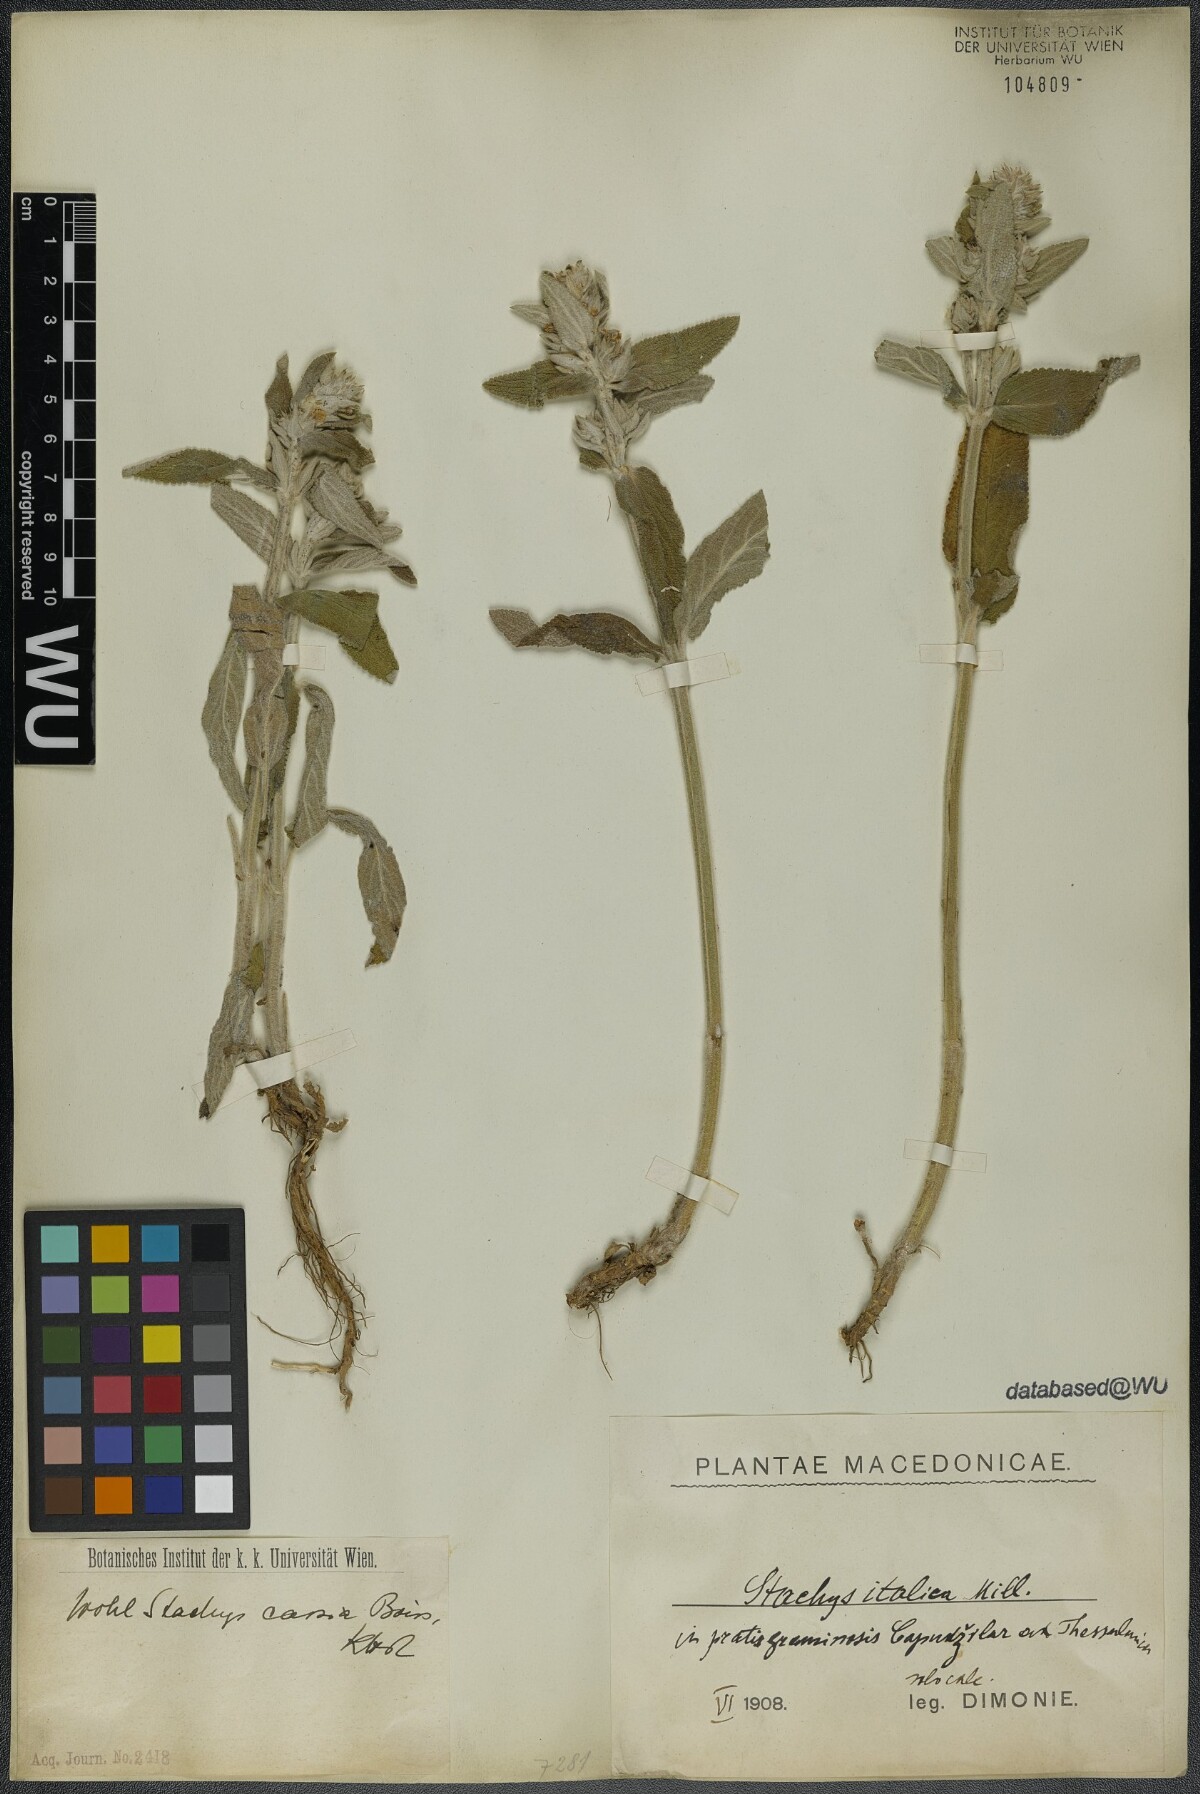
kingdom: Plantae
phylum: Tracheophyta
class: Magnoliopsida
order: Lamiales
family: Lamiaceae
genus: Stachys
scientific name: Stachys cretica
